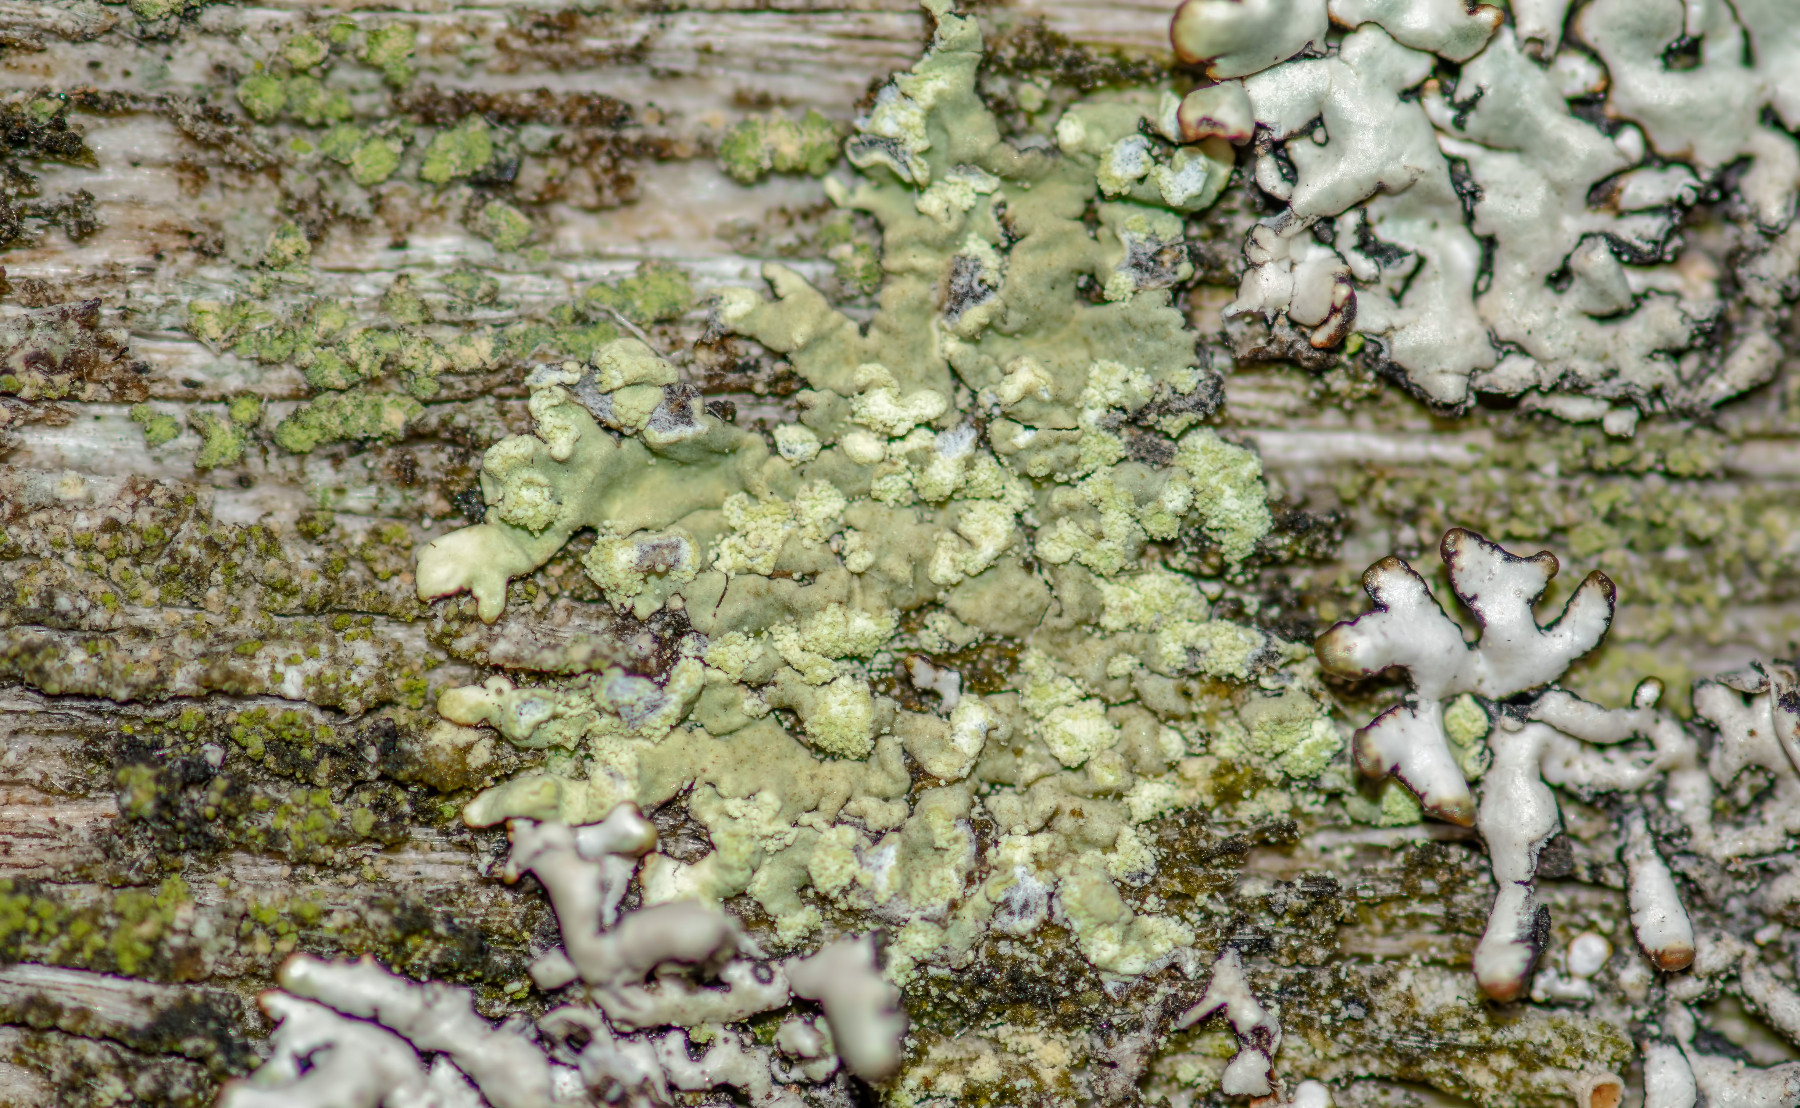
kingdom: Fungi
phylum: Ascomycota
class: Lecanoromycetes
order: Lecanorales
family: Parmeliaceae
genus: Parmeliopsis
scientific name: Parmeliopsis ambigua
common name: gul stolpelav
